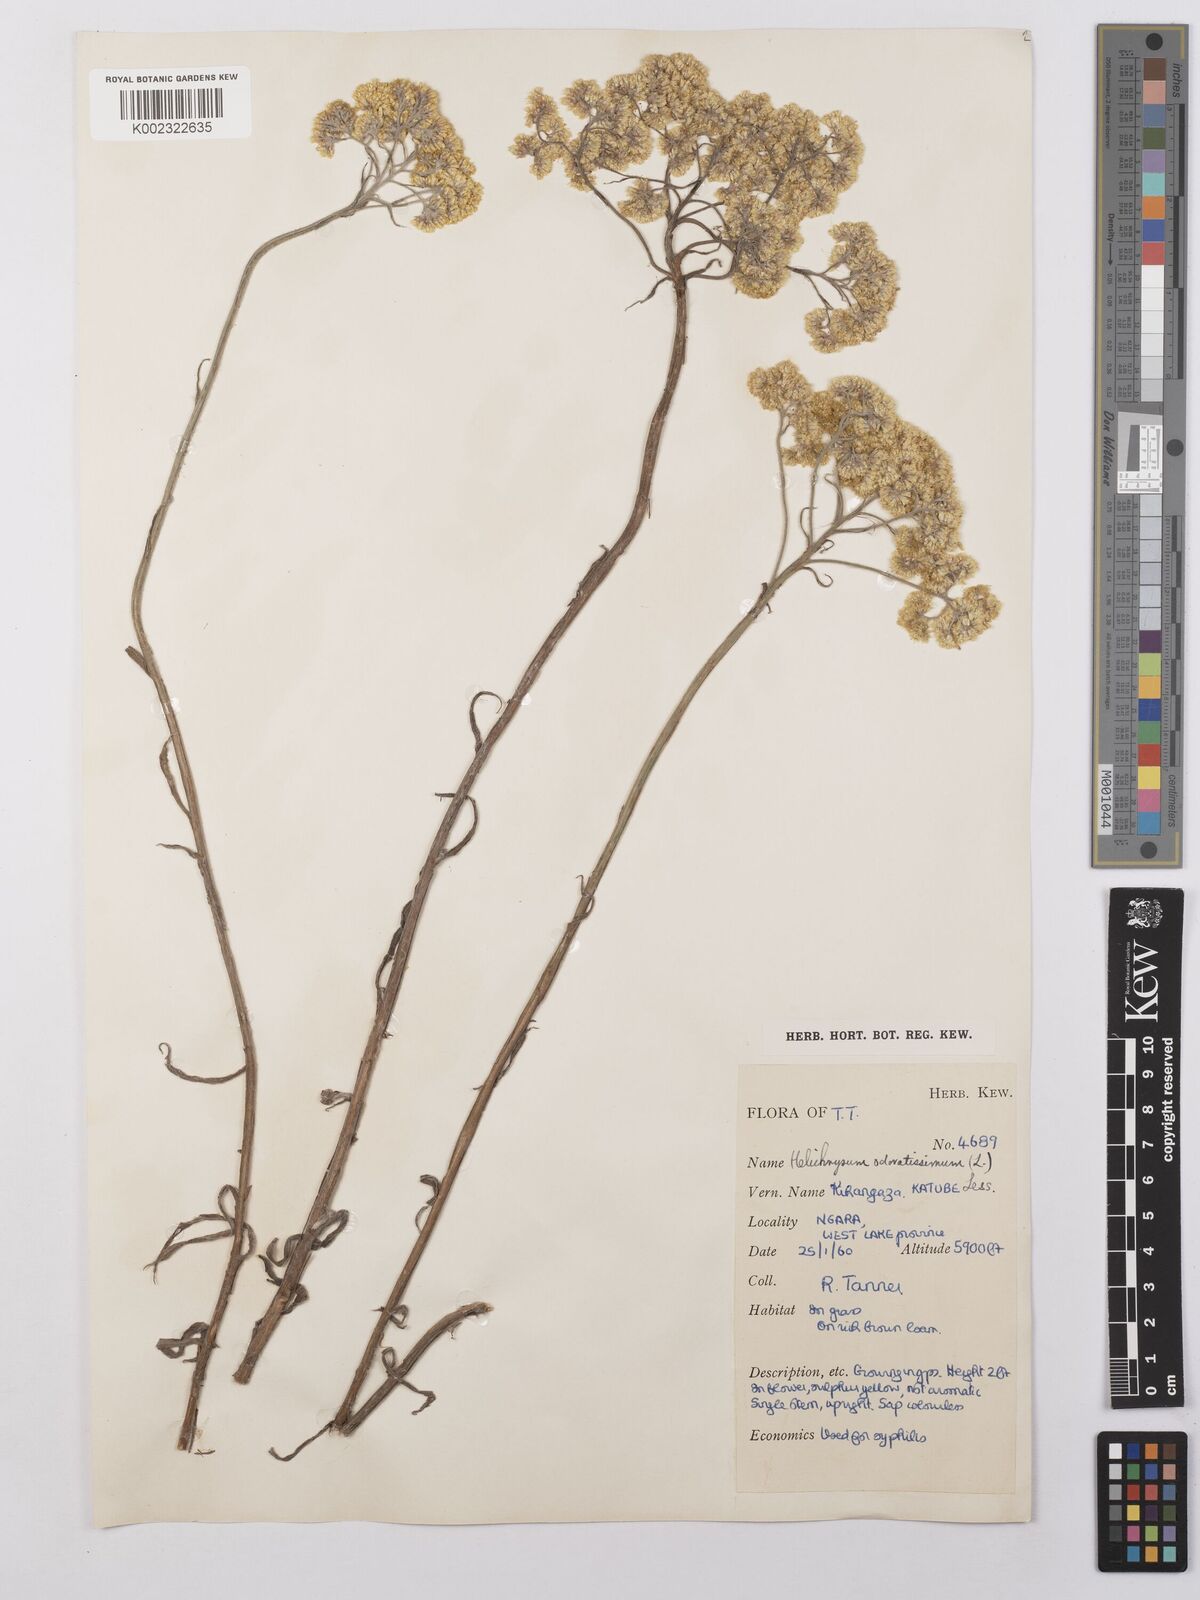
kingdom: Plantae
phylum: Tracheophyta
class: Magnoliopsida
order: Asterales
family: Asteraceae
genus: Helichrysum
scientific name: Helichrysum stenopterum
